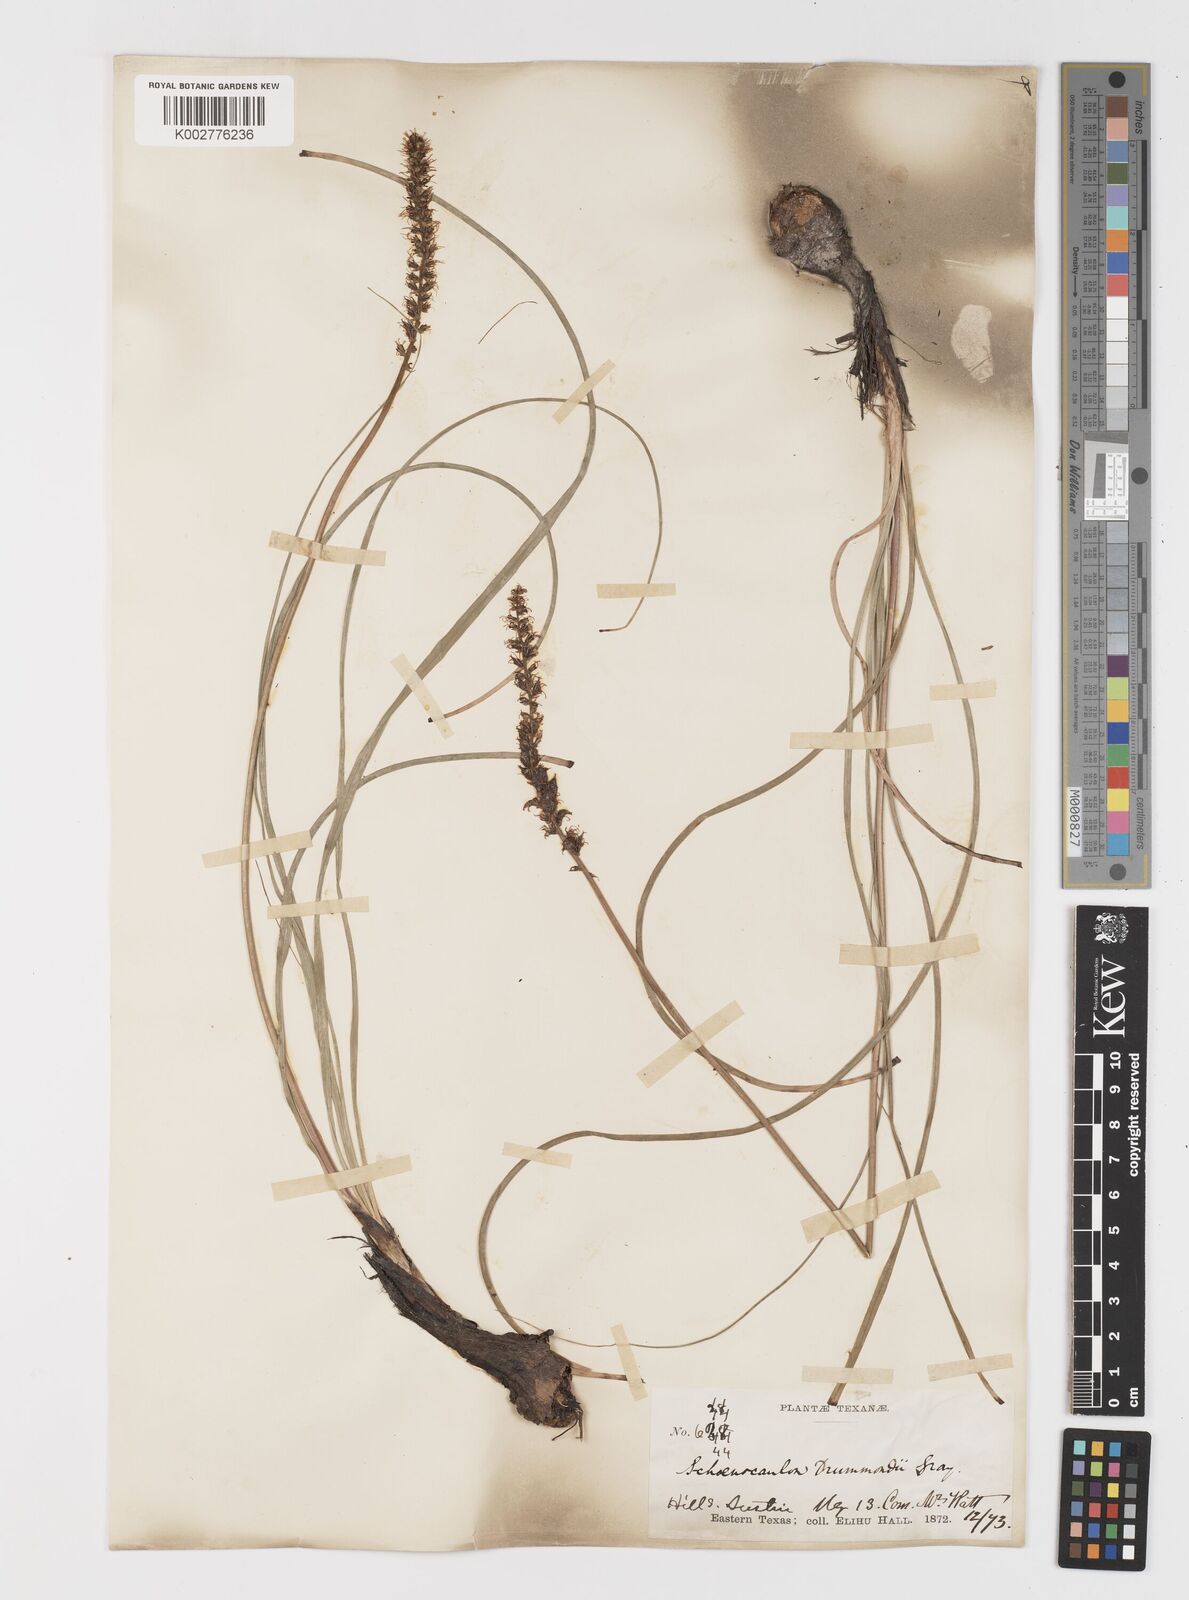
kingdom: Plantae
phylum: Tracheophyta
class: Liliopsida
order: Liliales
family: Melanthiaceae
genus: Schoenocaulon
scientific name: Schoenocaulon texanum
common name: Texas feather-shank
